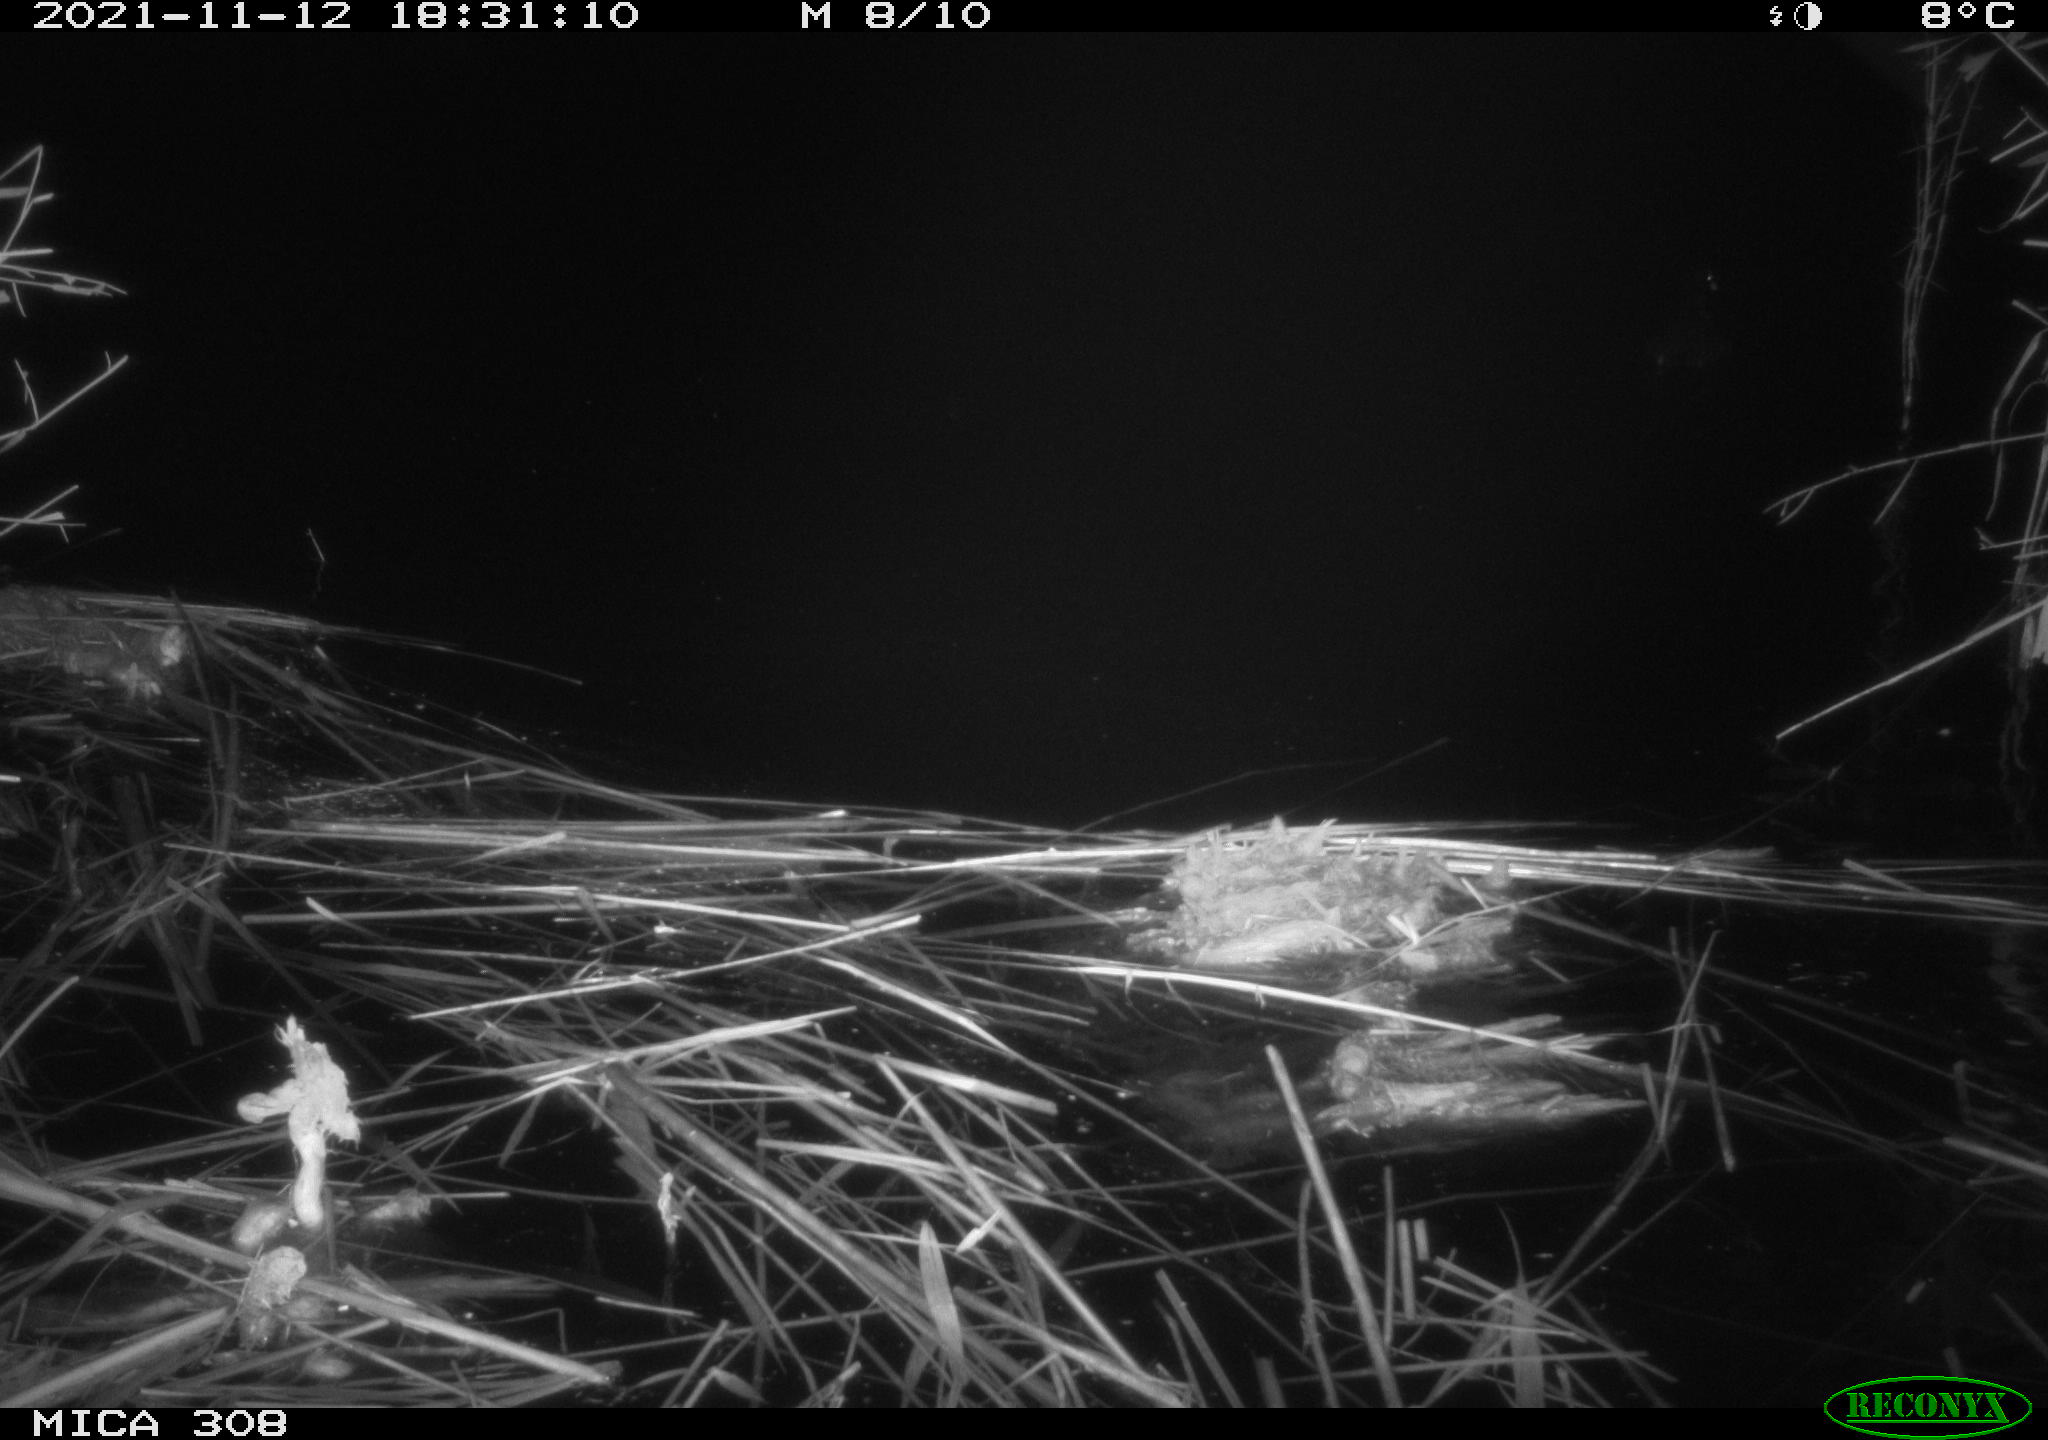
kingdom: Animalia
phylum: Chordata
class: Aves
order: Gruiformes
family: Rallidae
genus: Fulica
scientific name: Fulica atra
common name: Eurasian coot
